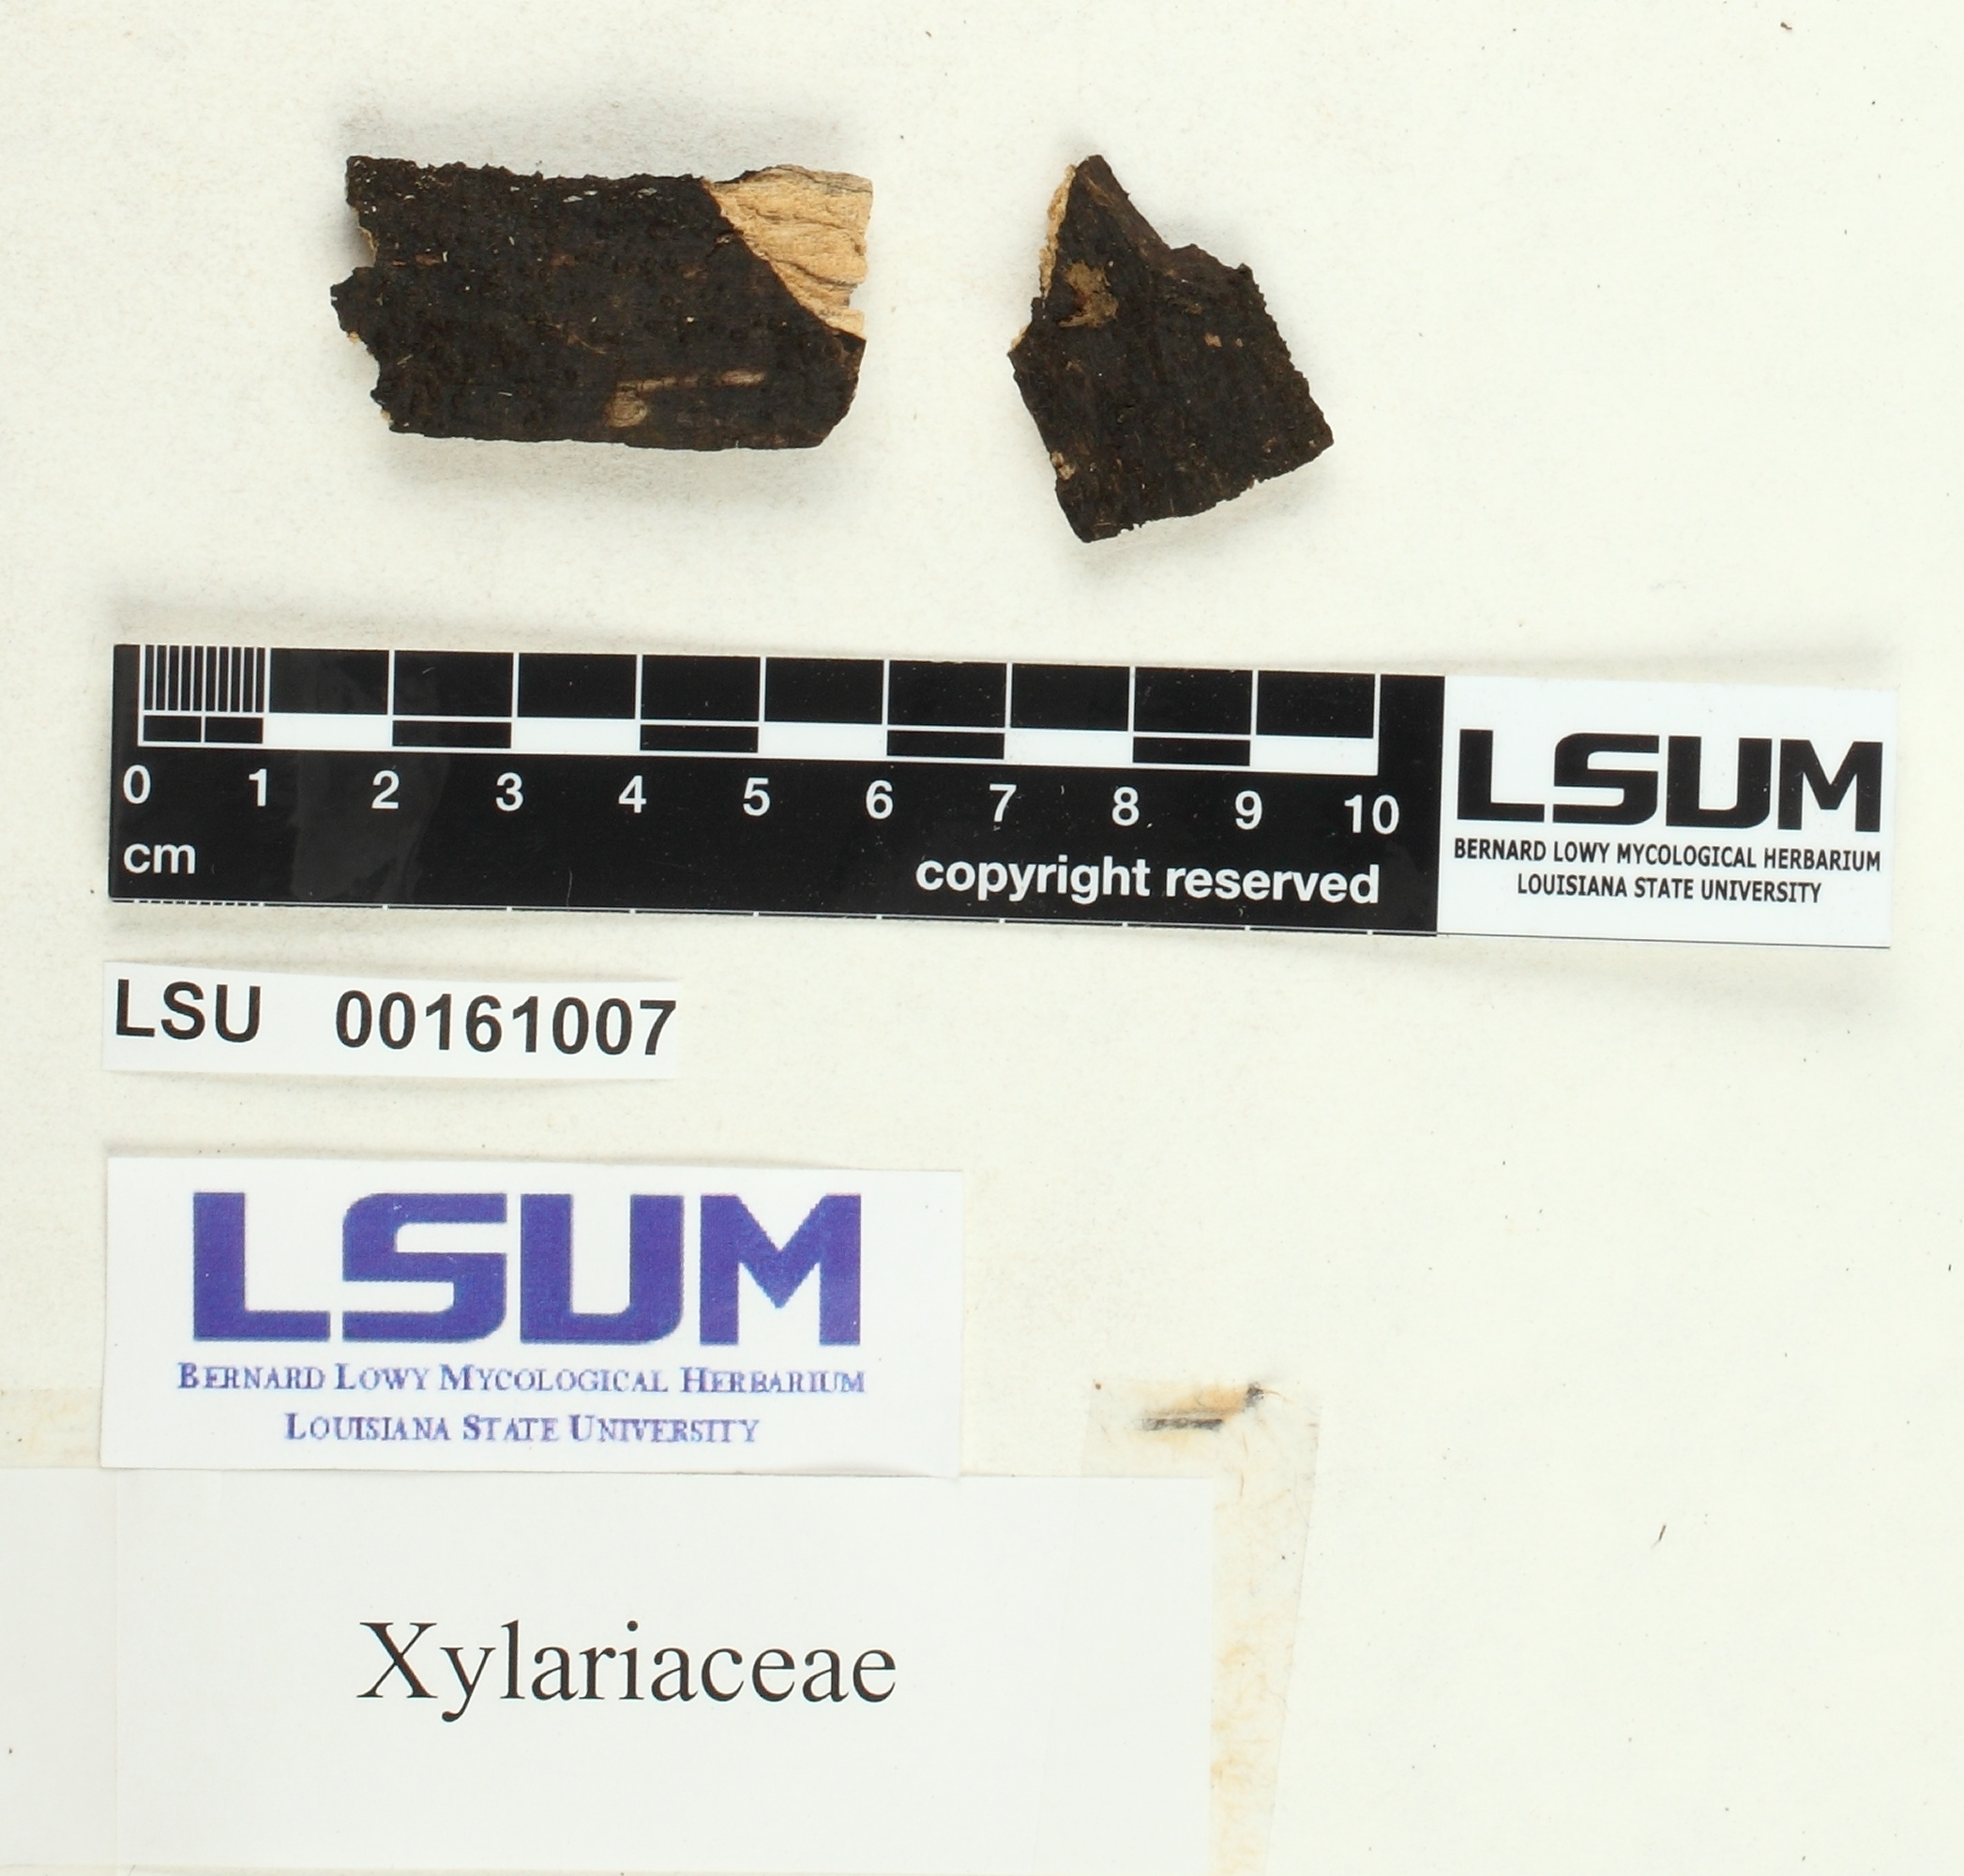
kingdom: Fungi
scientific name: Fungi
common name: Fungi
